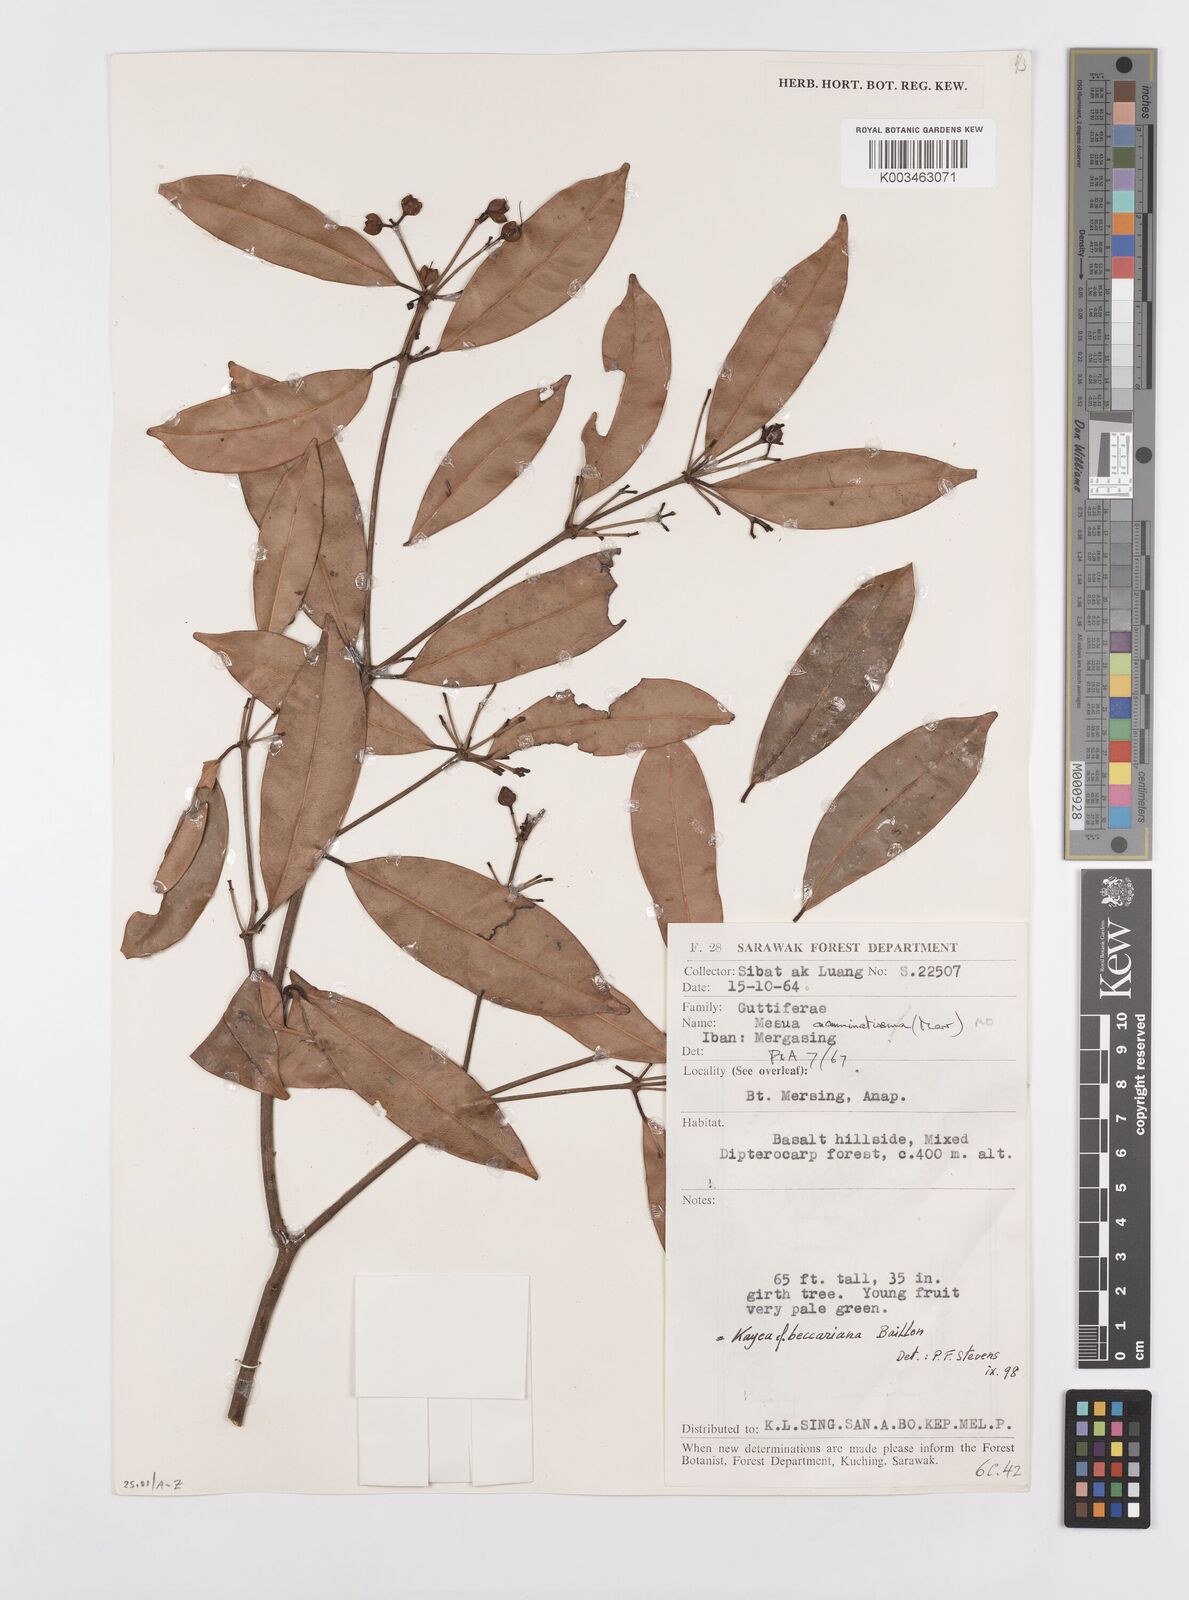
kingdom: Plantae
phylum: Tracheophyta
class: Magnoliopsida
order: Malpighiales
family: Calophyllaceae
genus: Kayea
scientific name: Kayea beccariana
